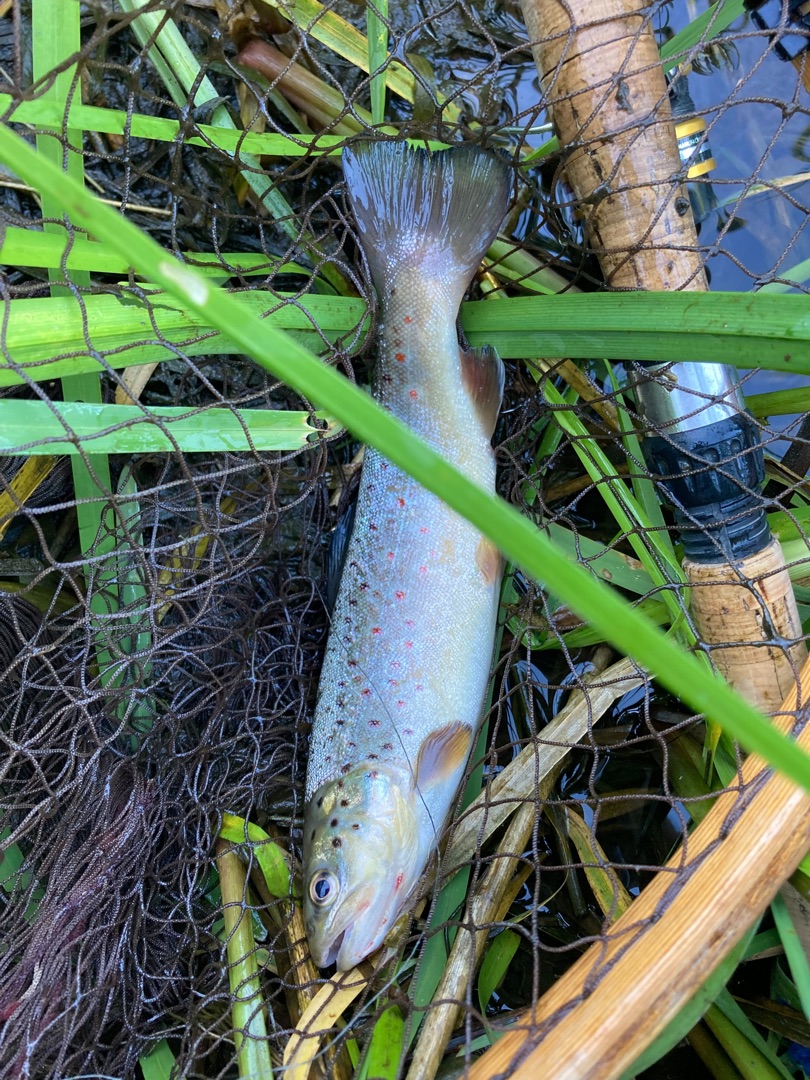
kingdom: Animalia
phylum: Chordata
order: Salmoniformes
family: Salmonidae
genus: Salmo
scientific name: Salmo trutta
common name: Ørred
